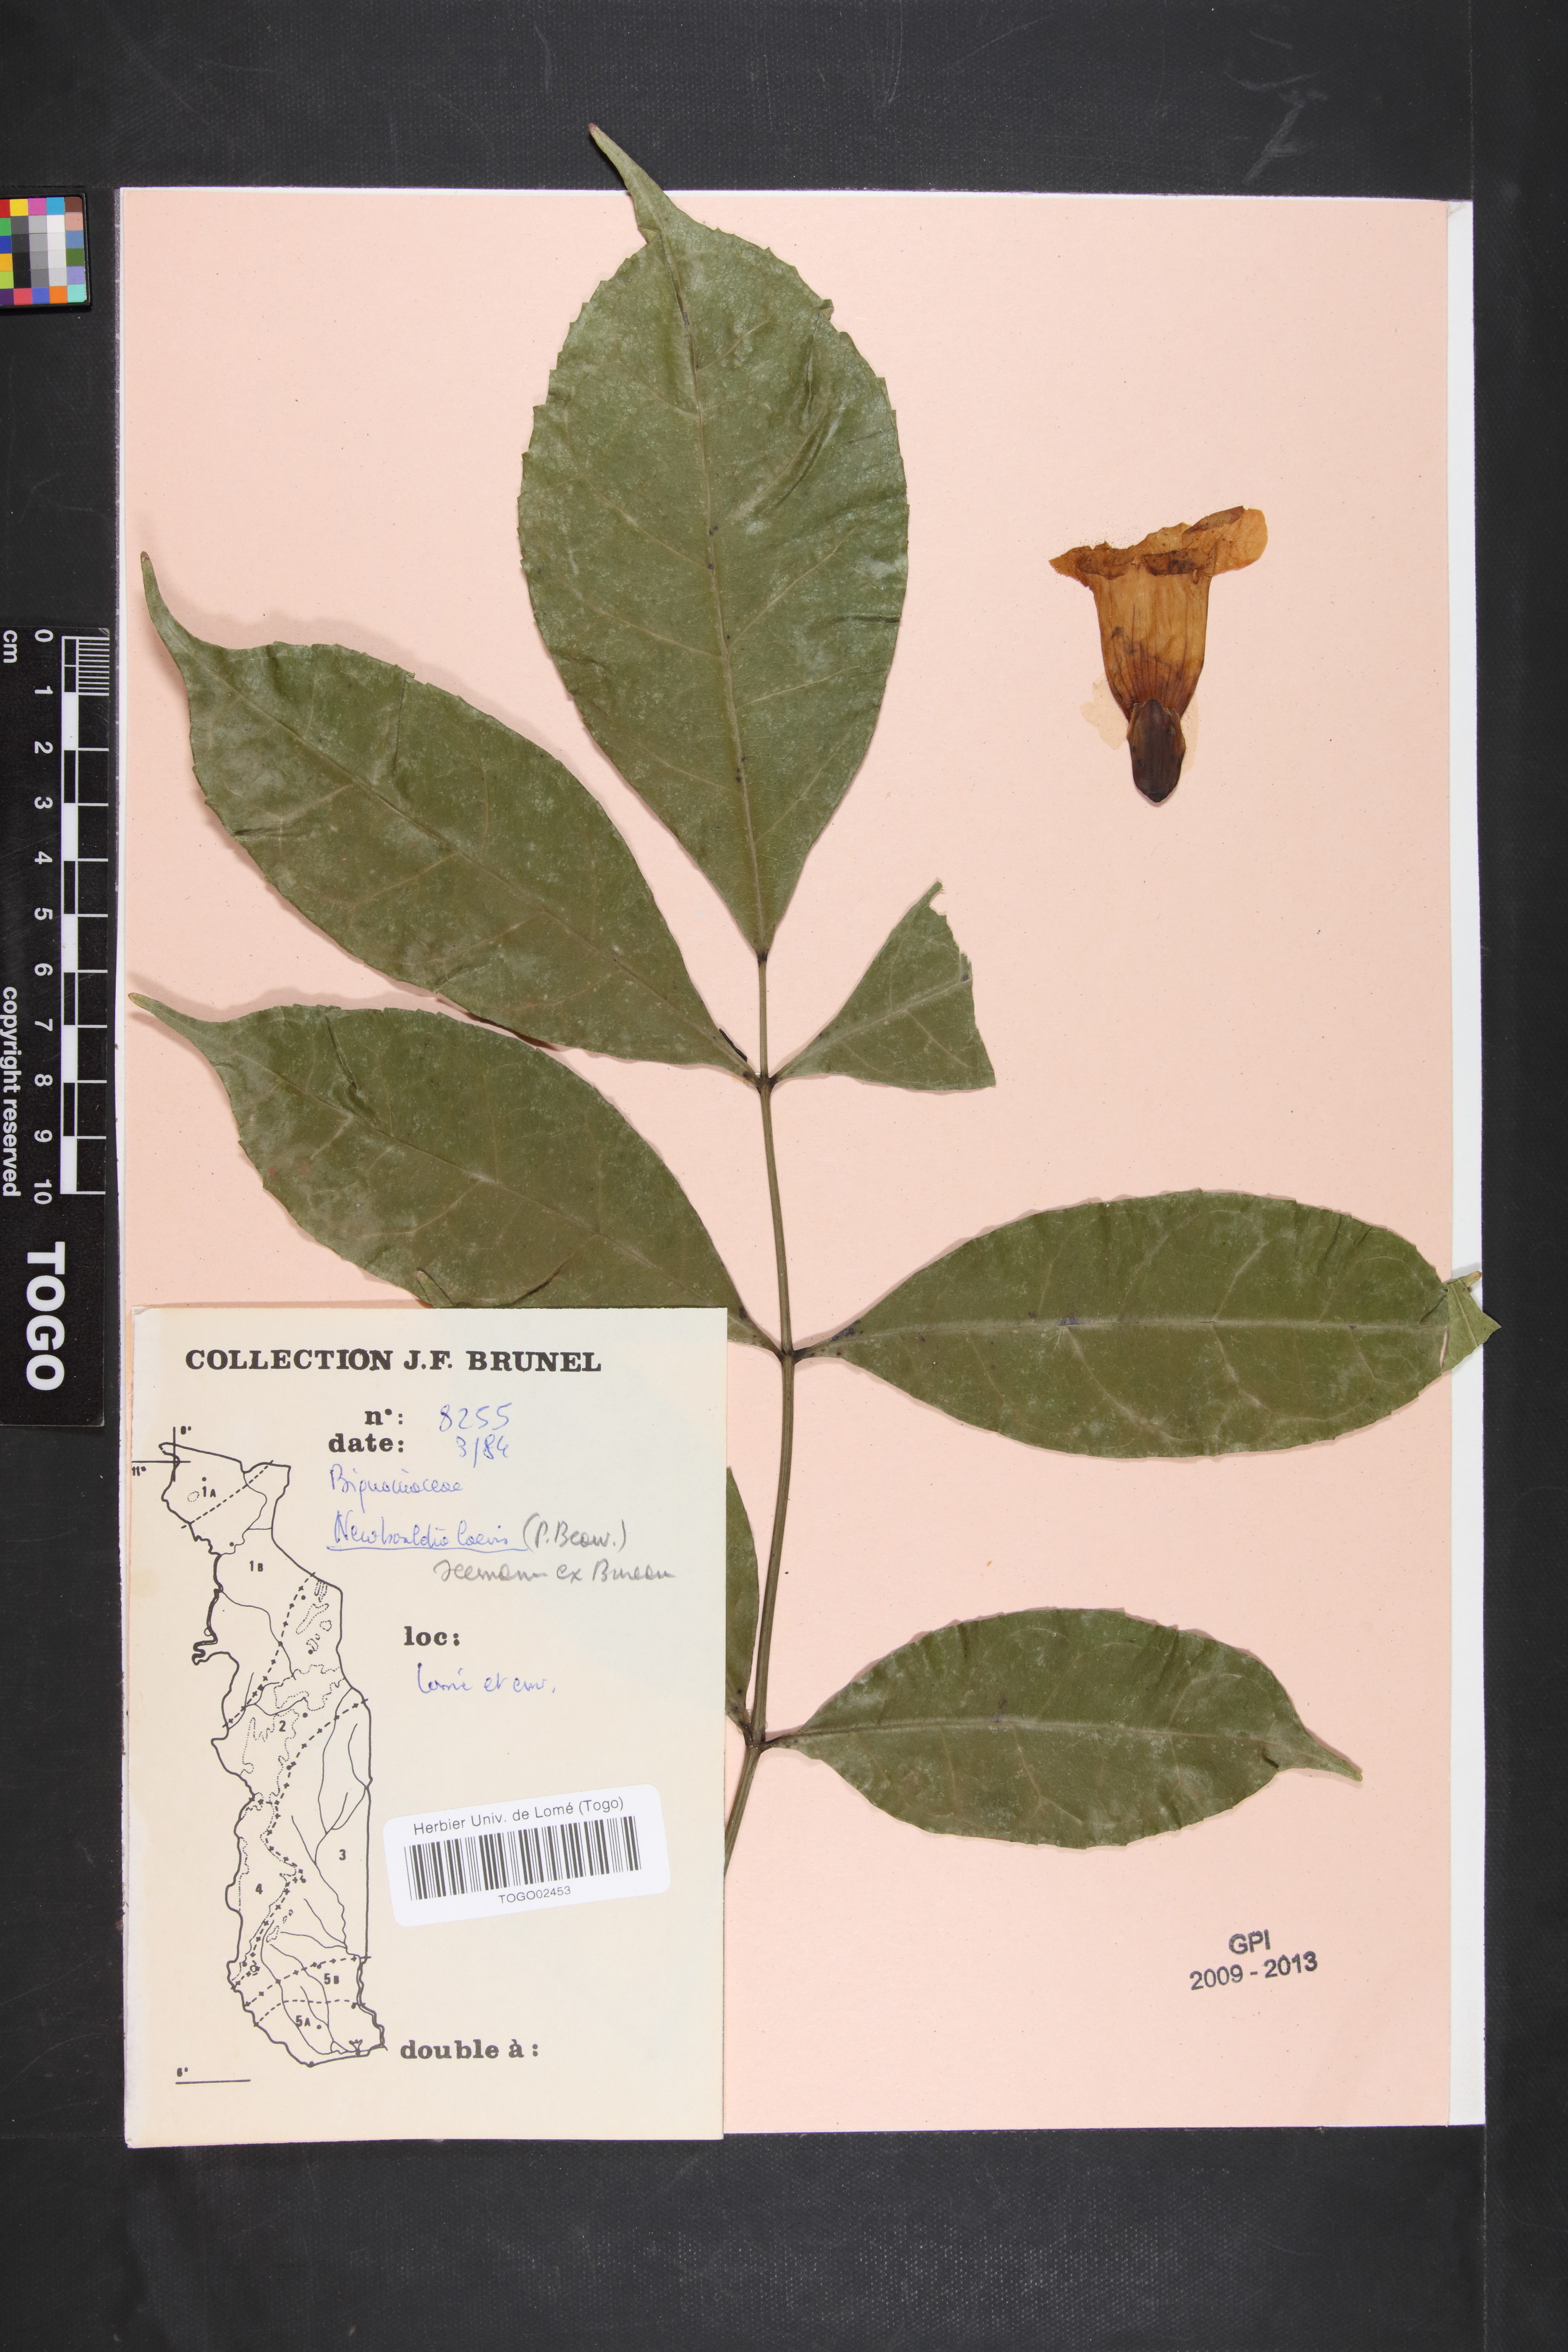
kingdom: Plantae
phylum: Tracheophyta
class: Magnoliopsida
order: Lamiales
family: Bignoniaceae
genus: Newbouldia
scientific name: Newbouldia laevis
